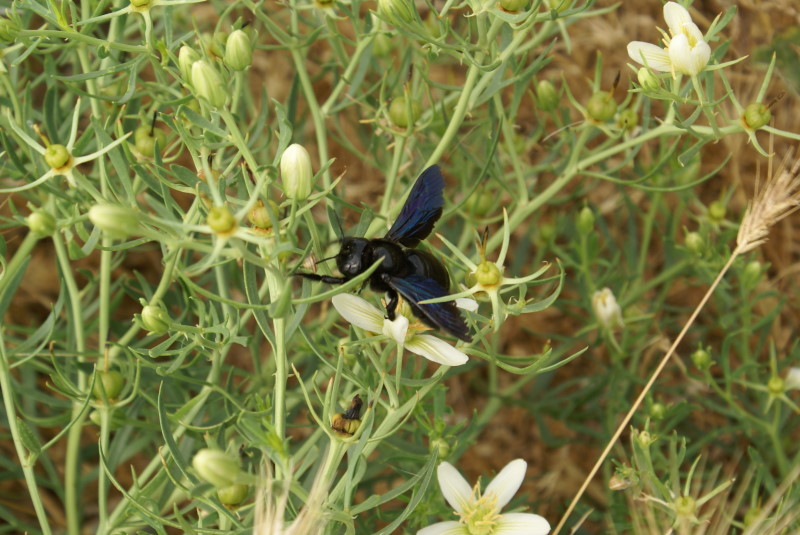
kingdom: Plantae
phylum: Tracheophyta
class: Magnoliopsida
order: Sapindales
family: Tetradiclidaceae
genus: Peganum
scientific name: Peganum harmala
